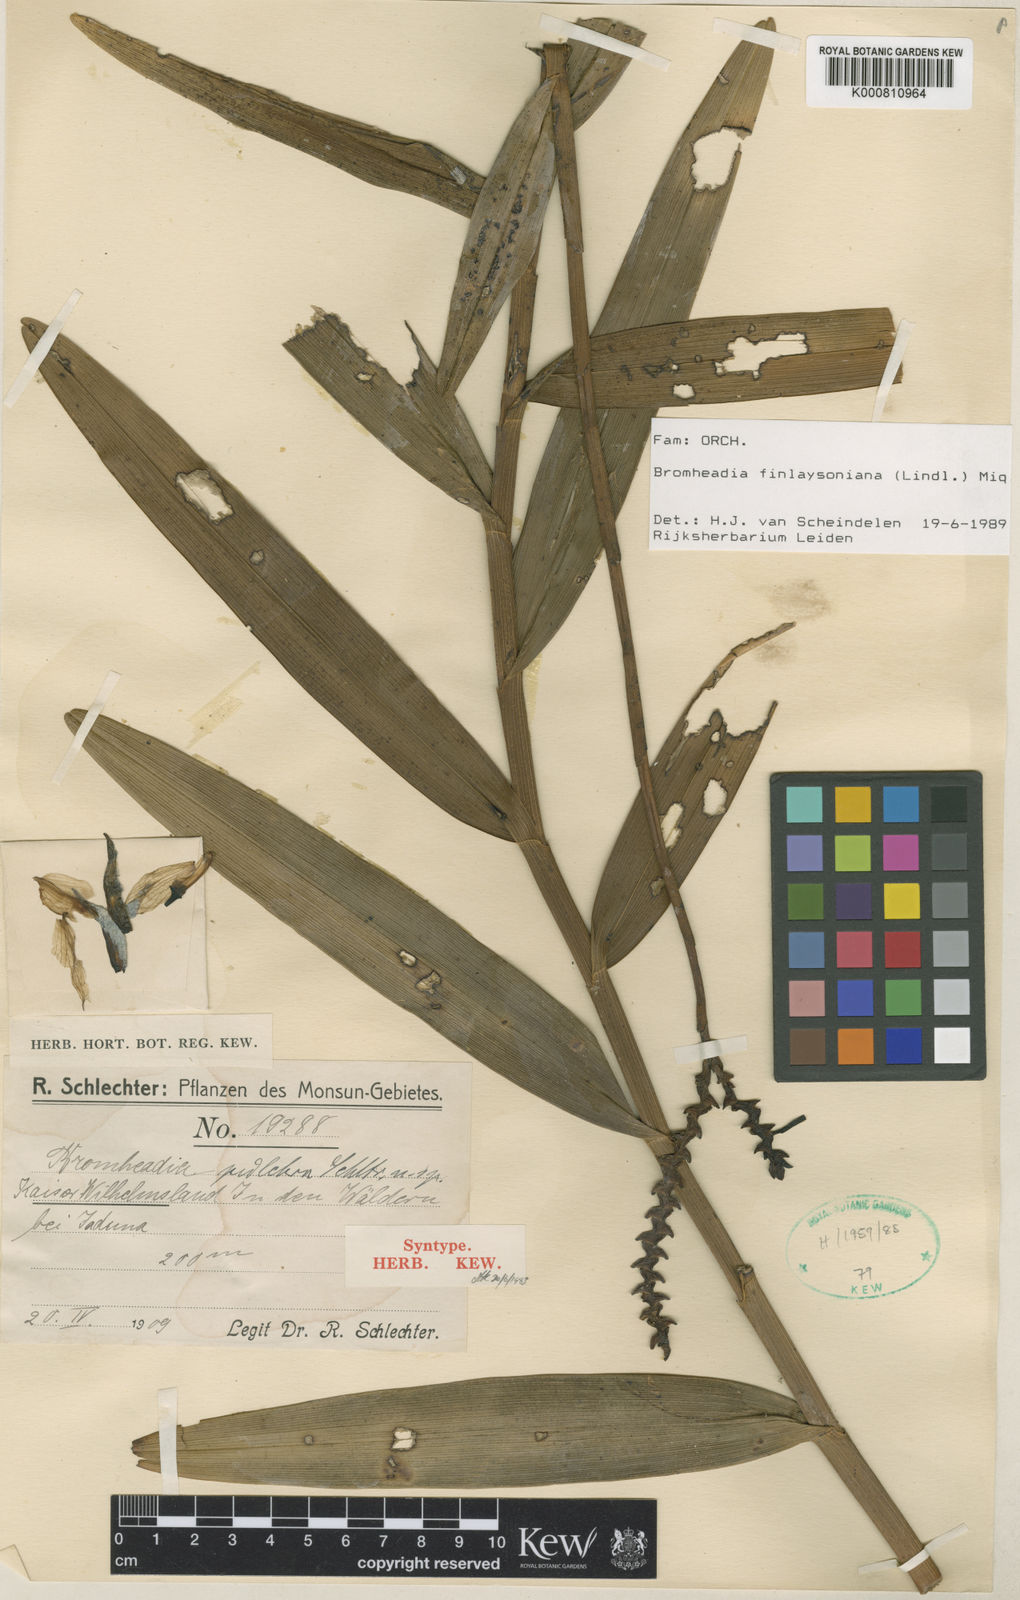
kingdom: Plantae
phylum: Tracheophyta
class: Liliopsida
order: Asparagales
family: Orchidaceae
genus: Bromheadia
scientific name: Bromheadia finlaysoniana
